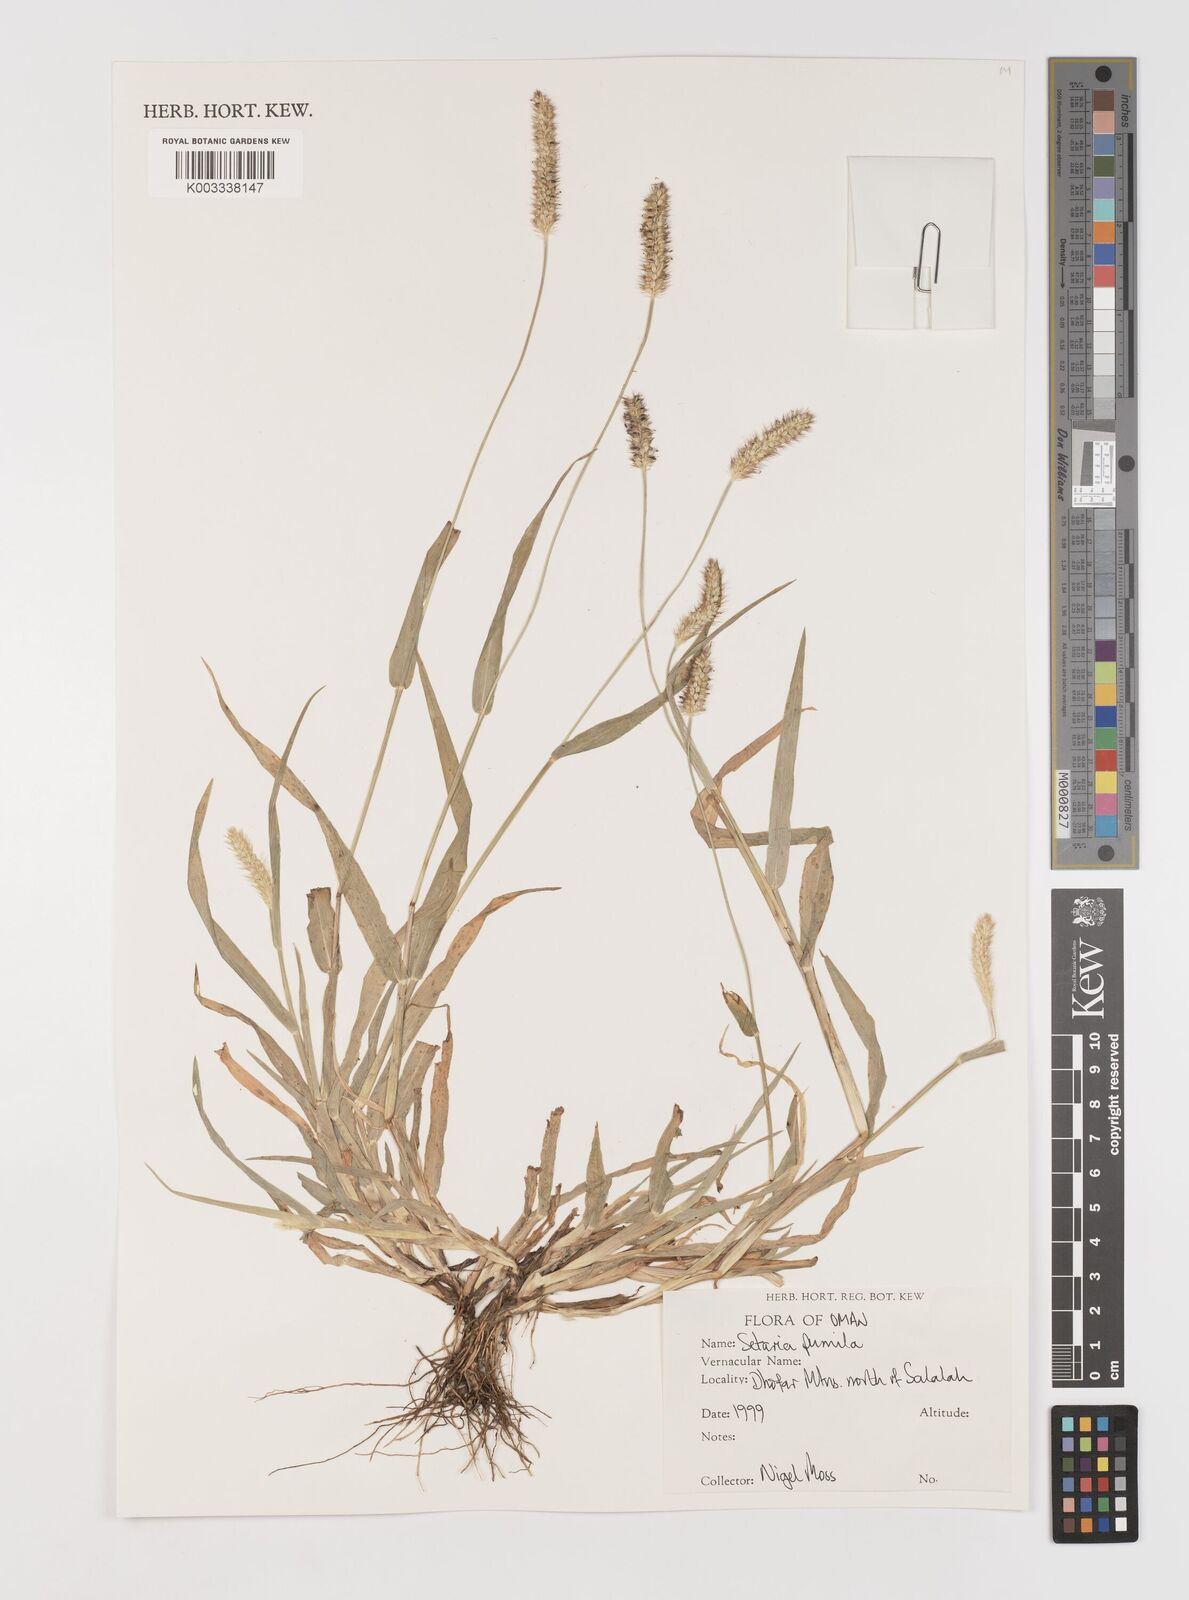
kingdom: Plantae
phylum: Tracheophyta
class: Liliopsida
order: Poales
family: Poaceae
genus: Setaria
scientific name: Setaria pumila
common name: Yellow bristle-grass
